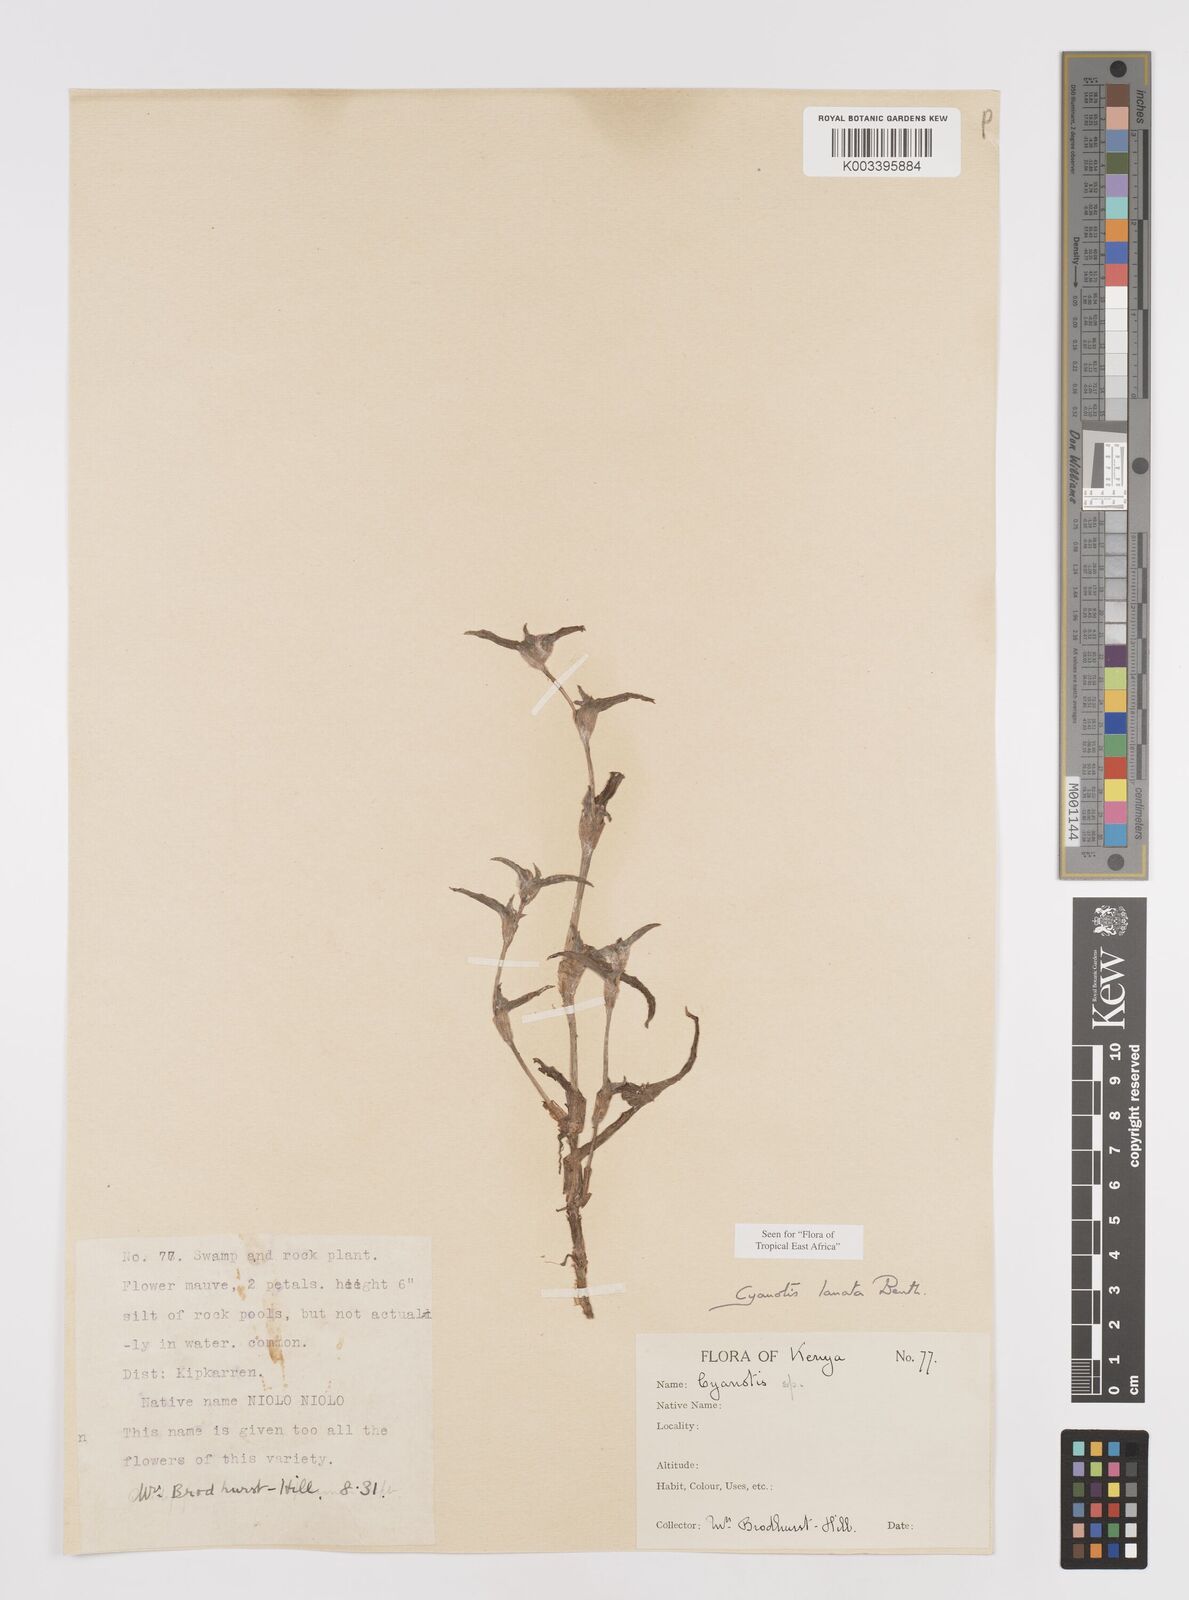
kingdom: Plantae
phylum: Tracheophyta
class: Liliopsida
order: Commelinales
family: Commelinaceae
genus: Cyanotis
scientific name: Cyanotis lanata
